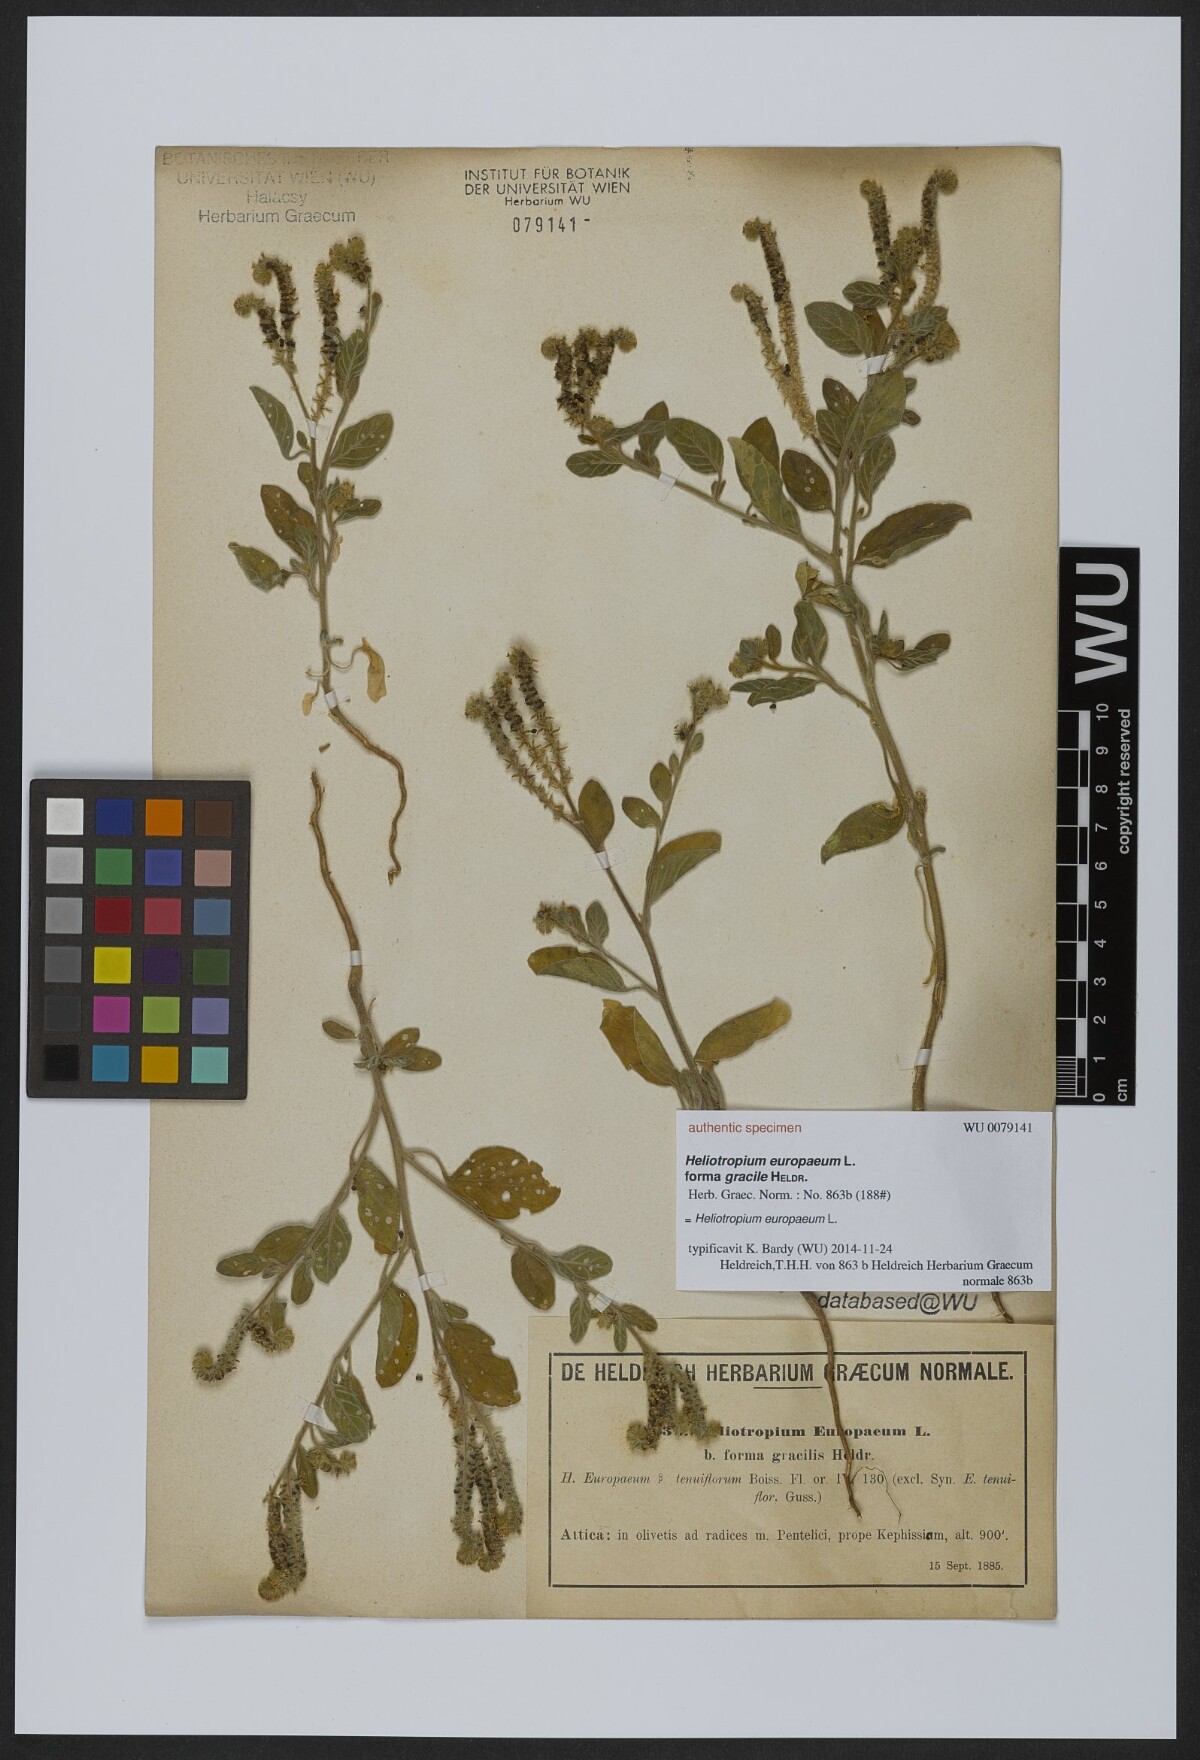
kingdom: Plantae
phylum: Tracheophyta
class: Magnoliopsida
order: Boraginales
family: Heliotropiaceae
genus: Heliotropium
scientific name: Heliotropium europaeum
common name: European heliotrope
